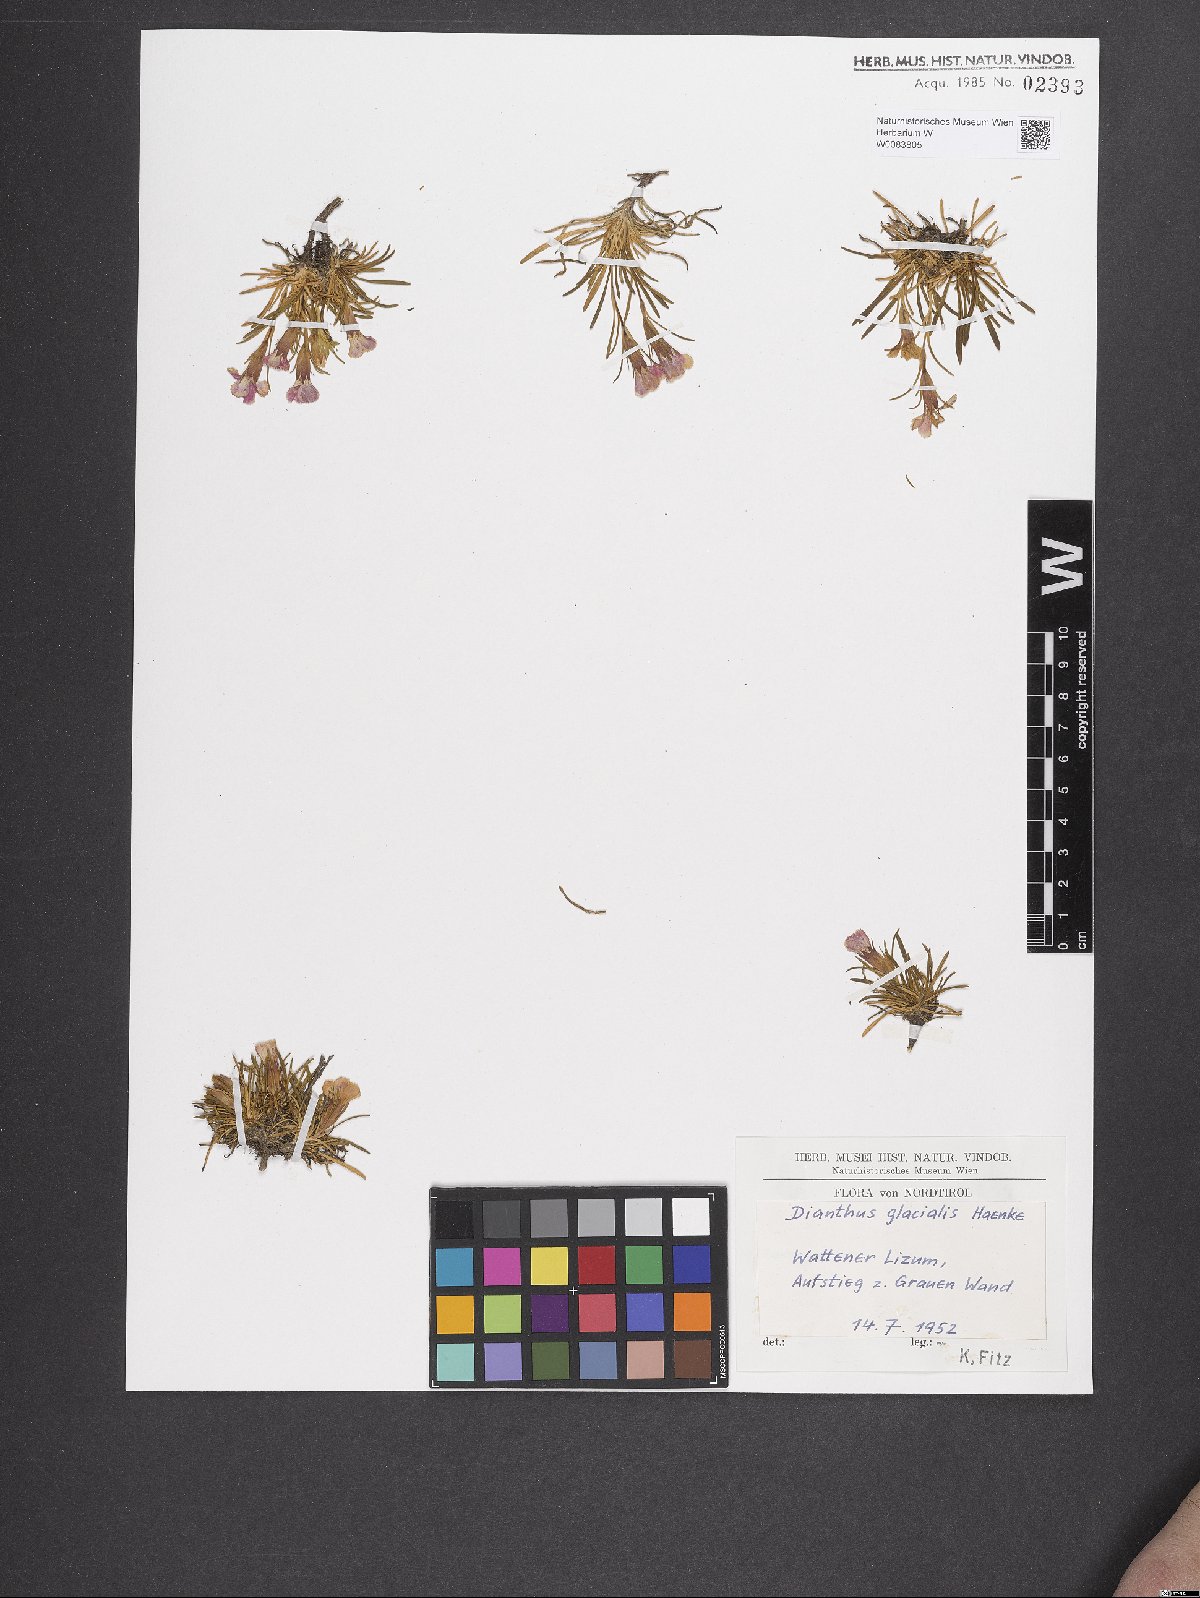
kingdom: Plantae
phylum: Tracheophyta
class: Magnoliopsida
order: Caryophyllales
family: Caryophyllaceae
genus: Dianthus
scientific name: Dianthus glacialis
